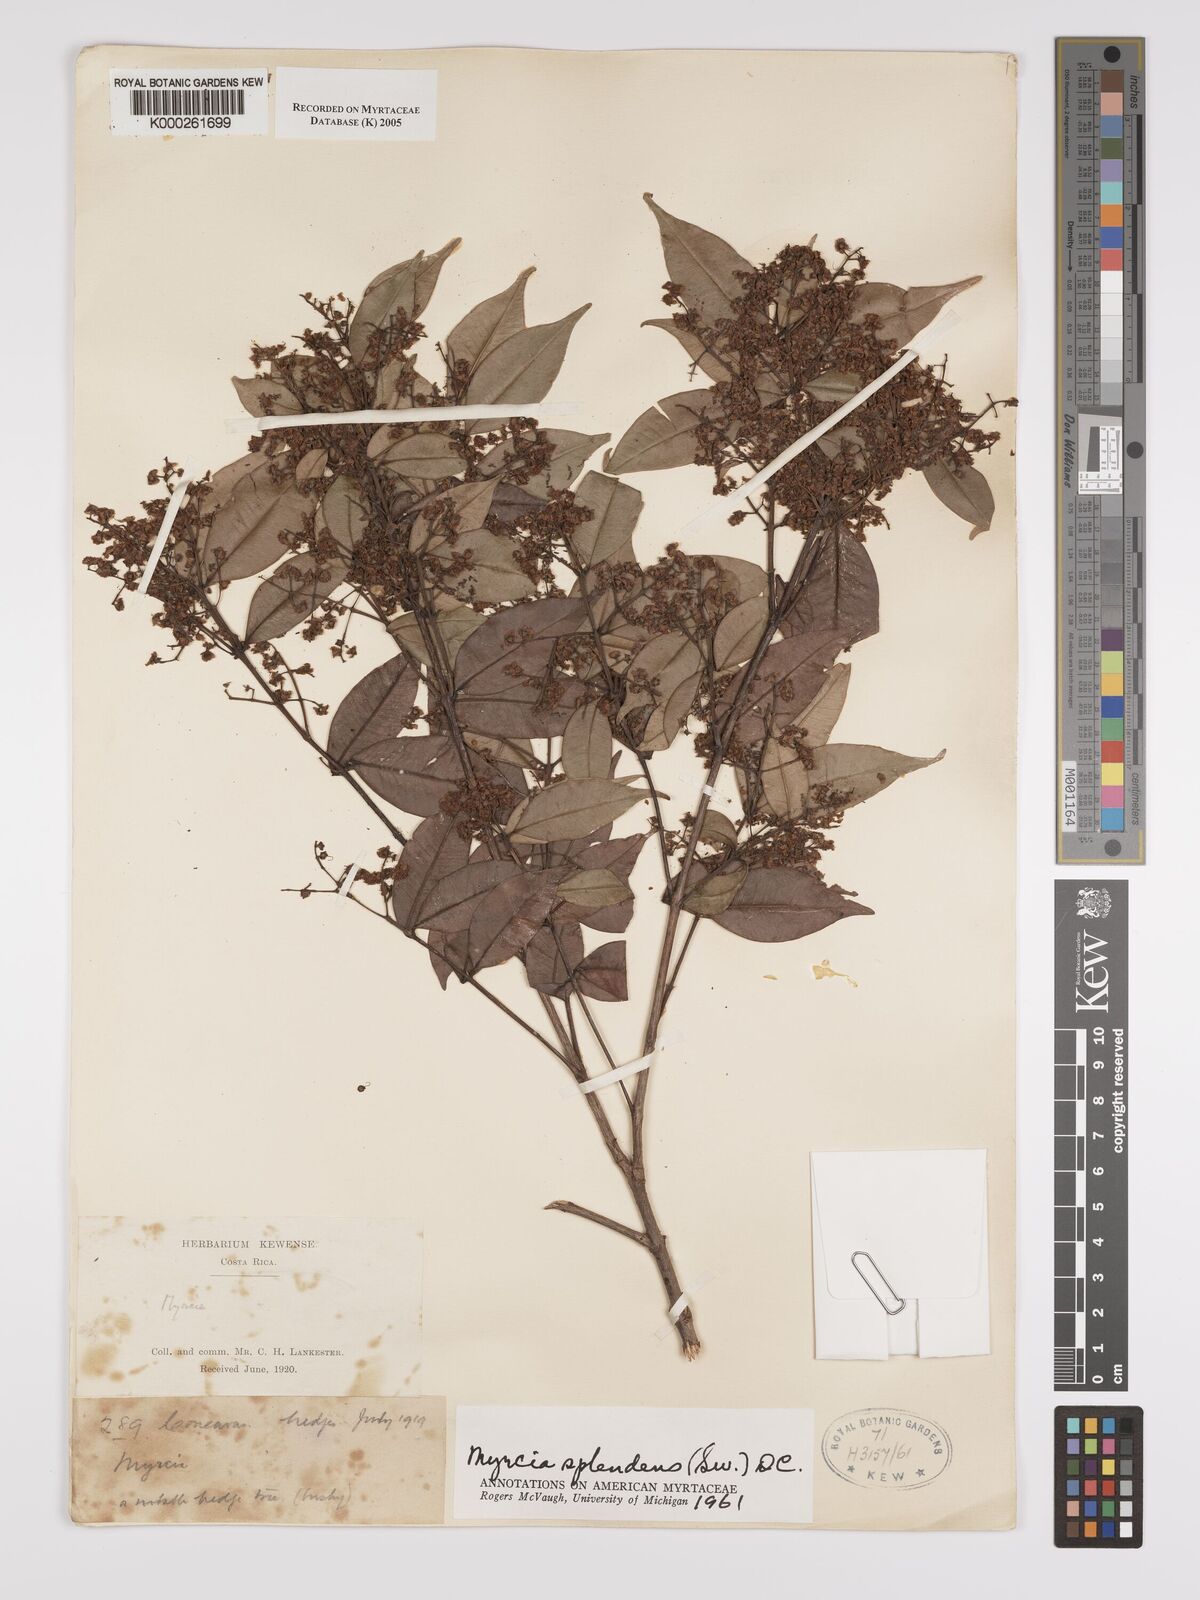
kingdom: Plantae
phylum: Tracheophyta
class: Magnoliopsida
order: Myrtales
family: Myrtaceae
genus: Myrcia
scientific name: Myrcia splendens
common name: Surinam cherry
